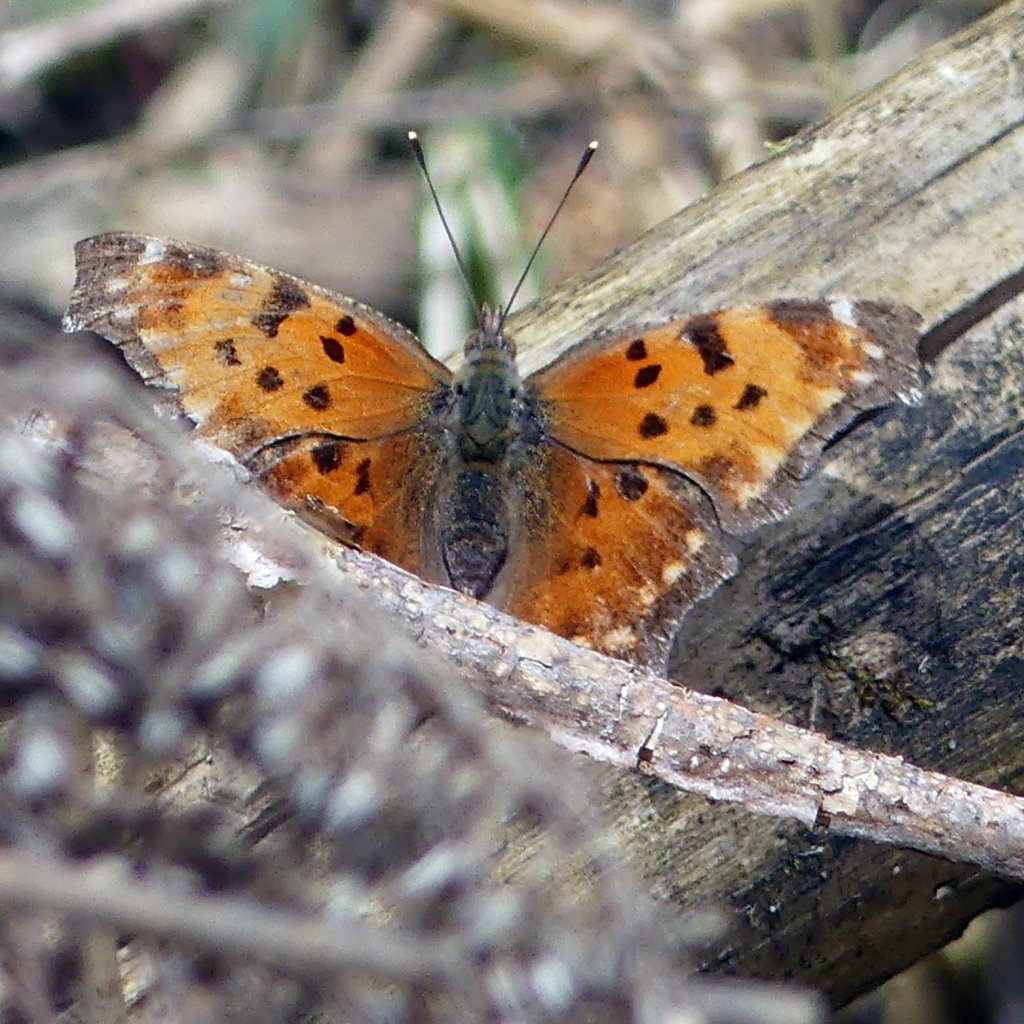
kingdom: Animalia
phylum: Arthropoda
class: Insecta
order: Lepidoptera
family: Nymphalidae
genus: Polygonia
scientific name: Polygonia comma
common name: Eastern Comma
